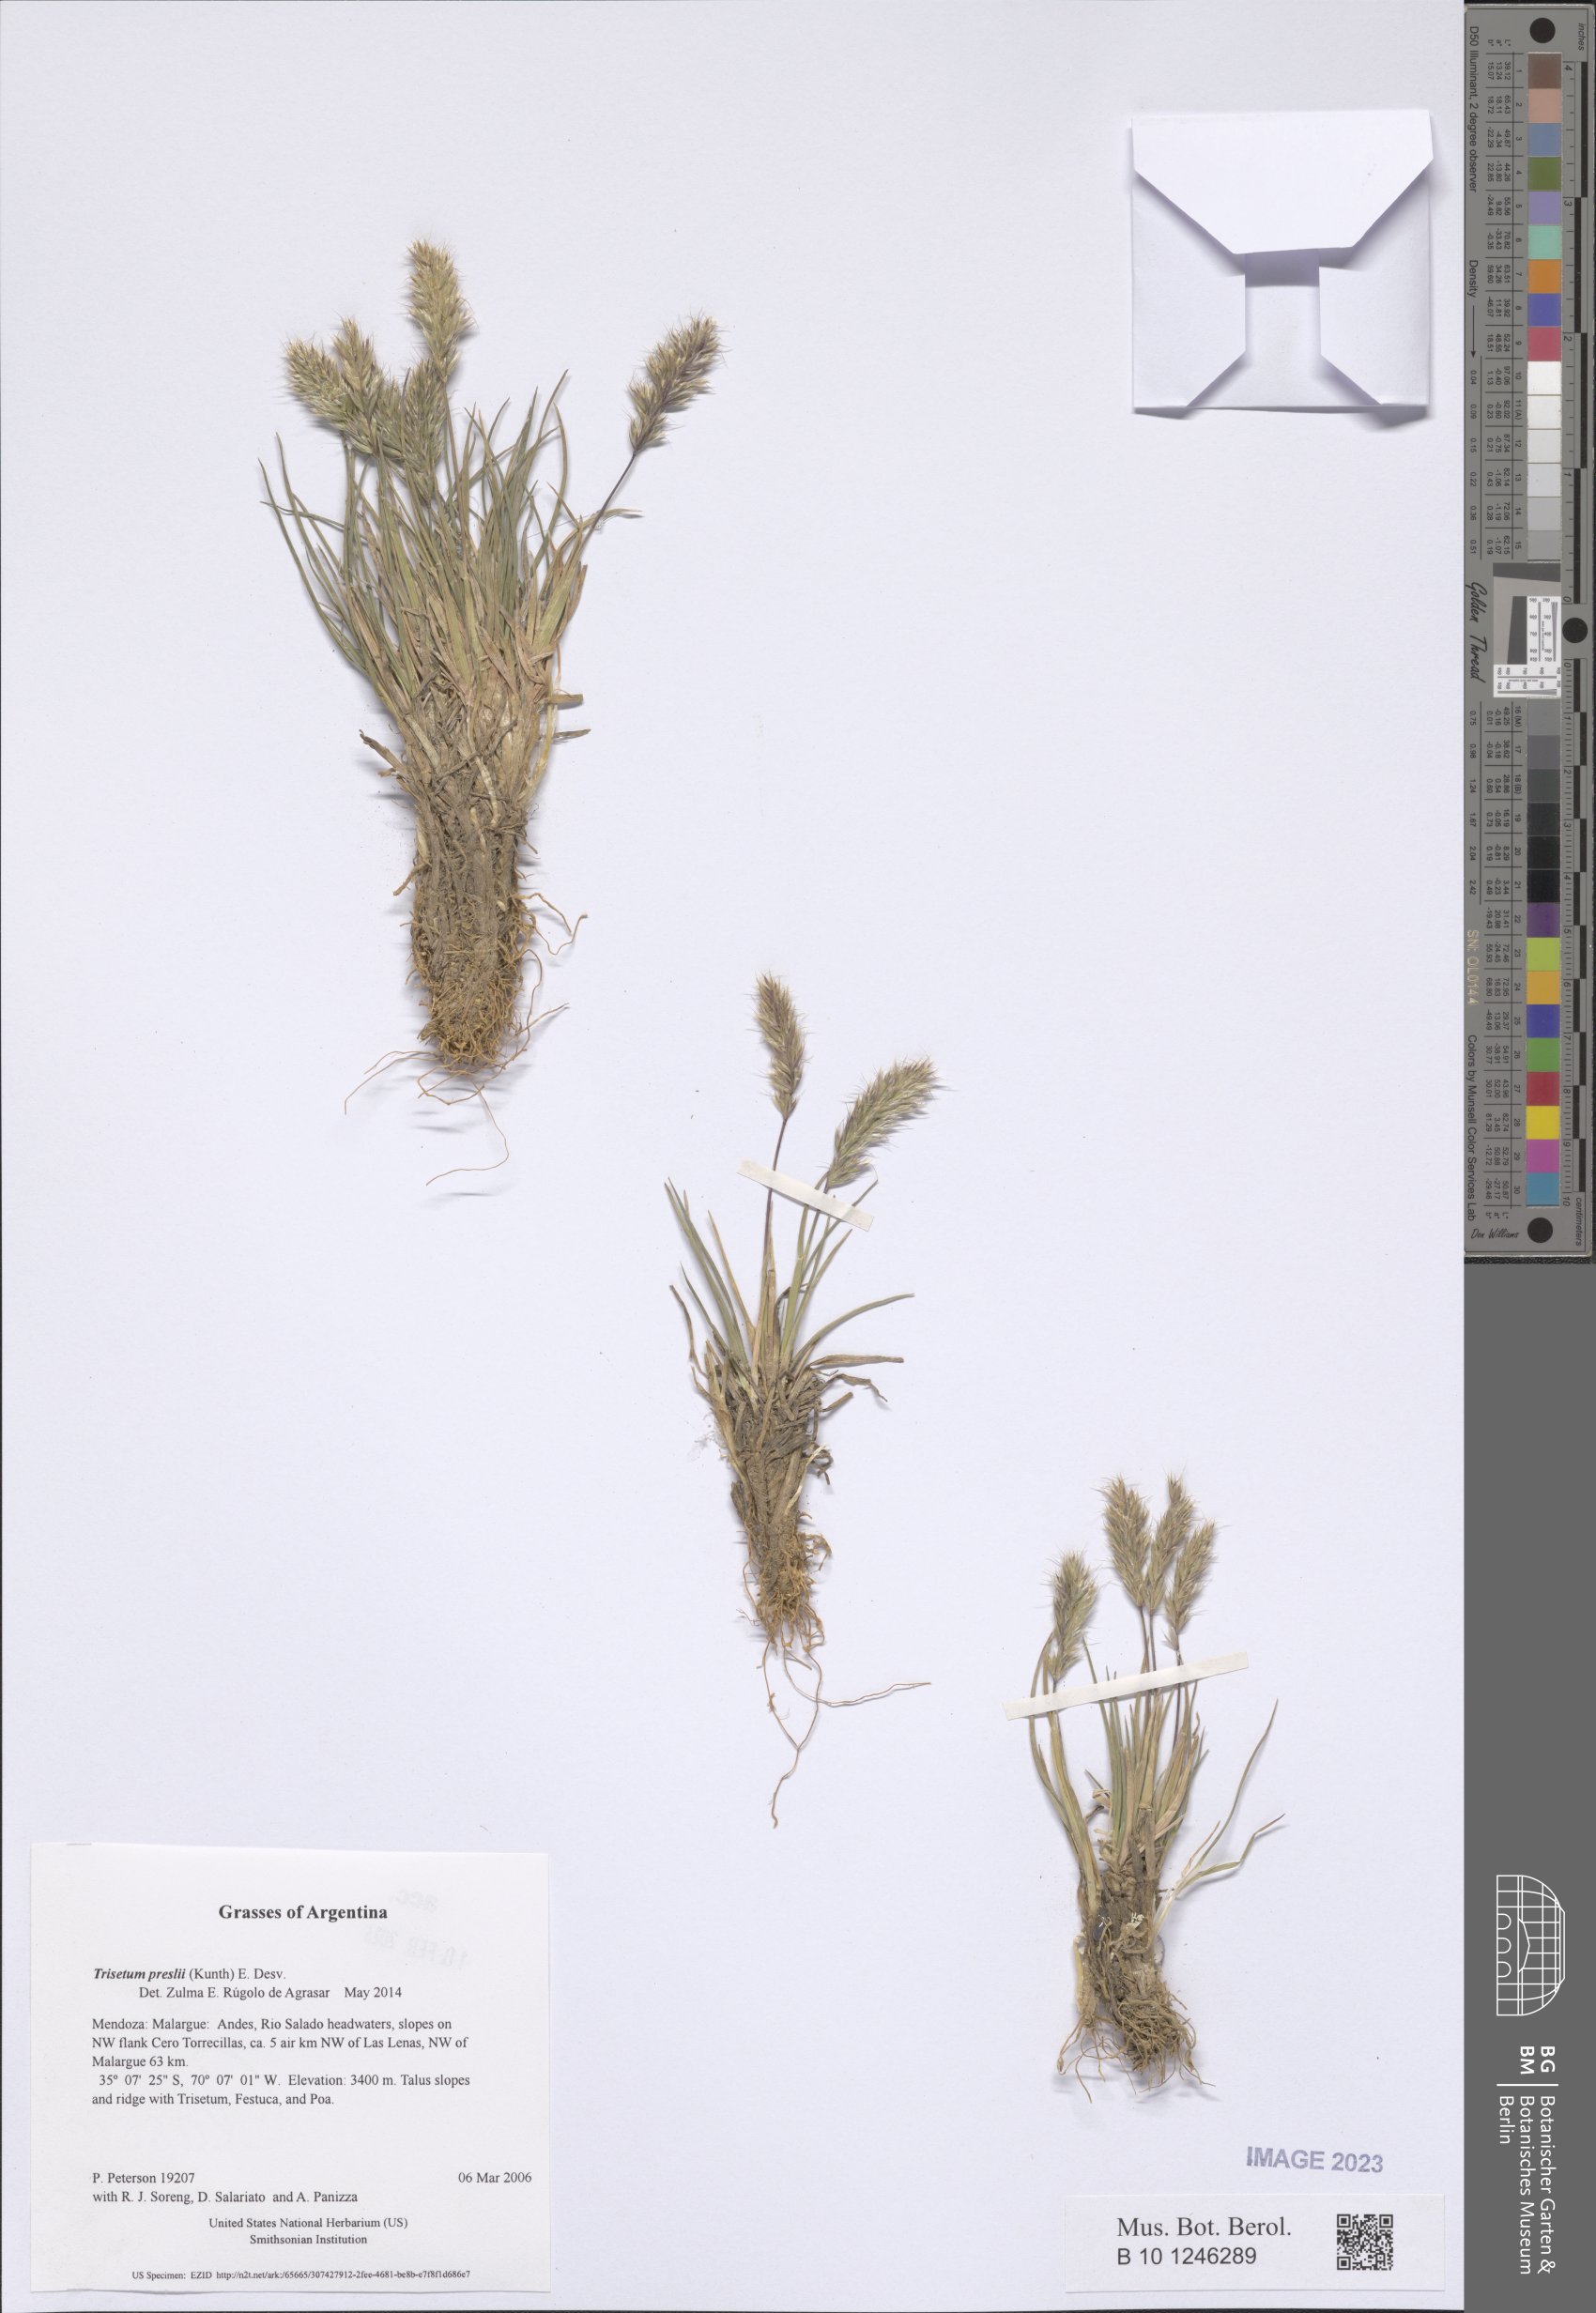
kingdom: Plantae
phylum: Tracheophyta
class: Liliopsida
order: Poales
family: Poaceae
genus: Koeleria
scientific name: Koeleria preslii
